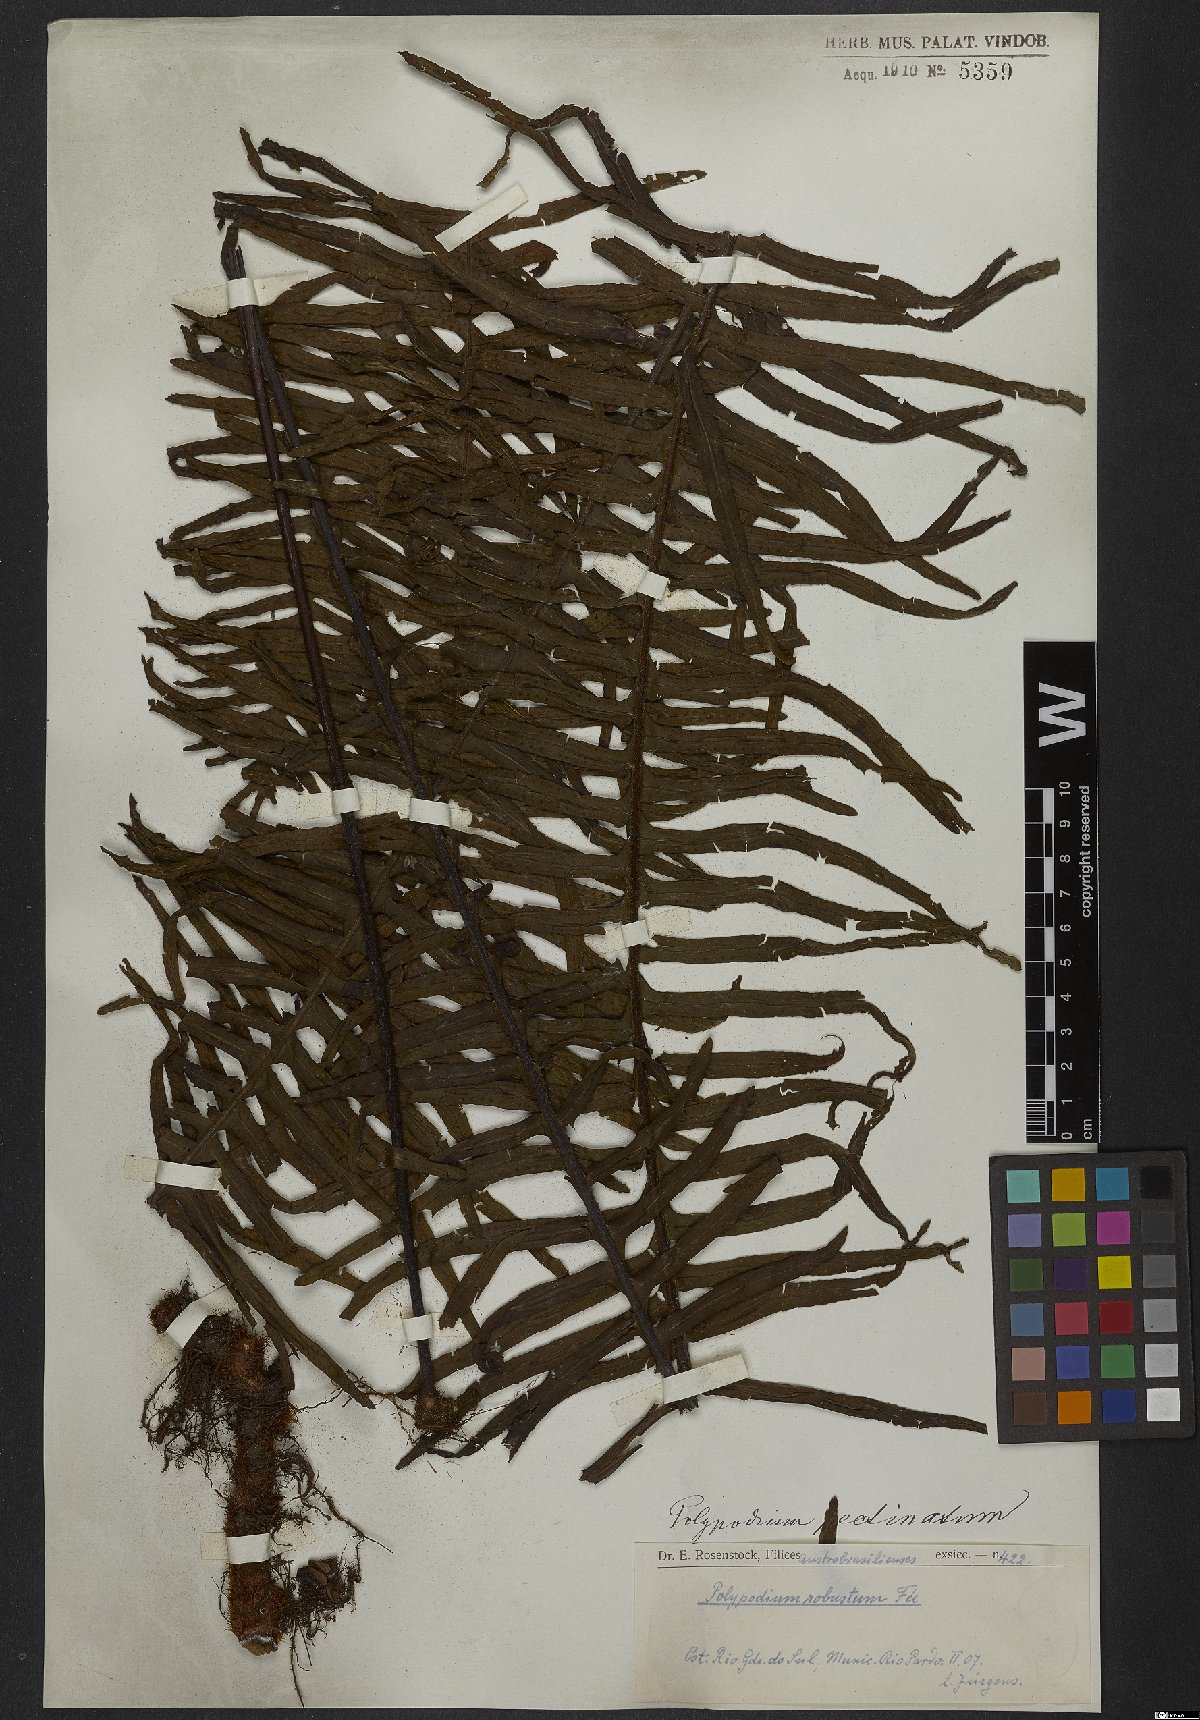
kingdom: Plantae
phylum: Tracheophyta
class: Polypodiopsida
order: Polypodiales
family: Polypodiaceae
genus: Pecluma
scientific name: Pecluma pectinata
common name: Msasa fern
